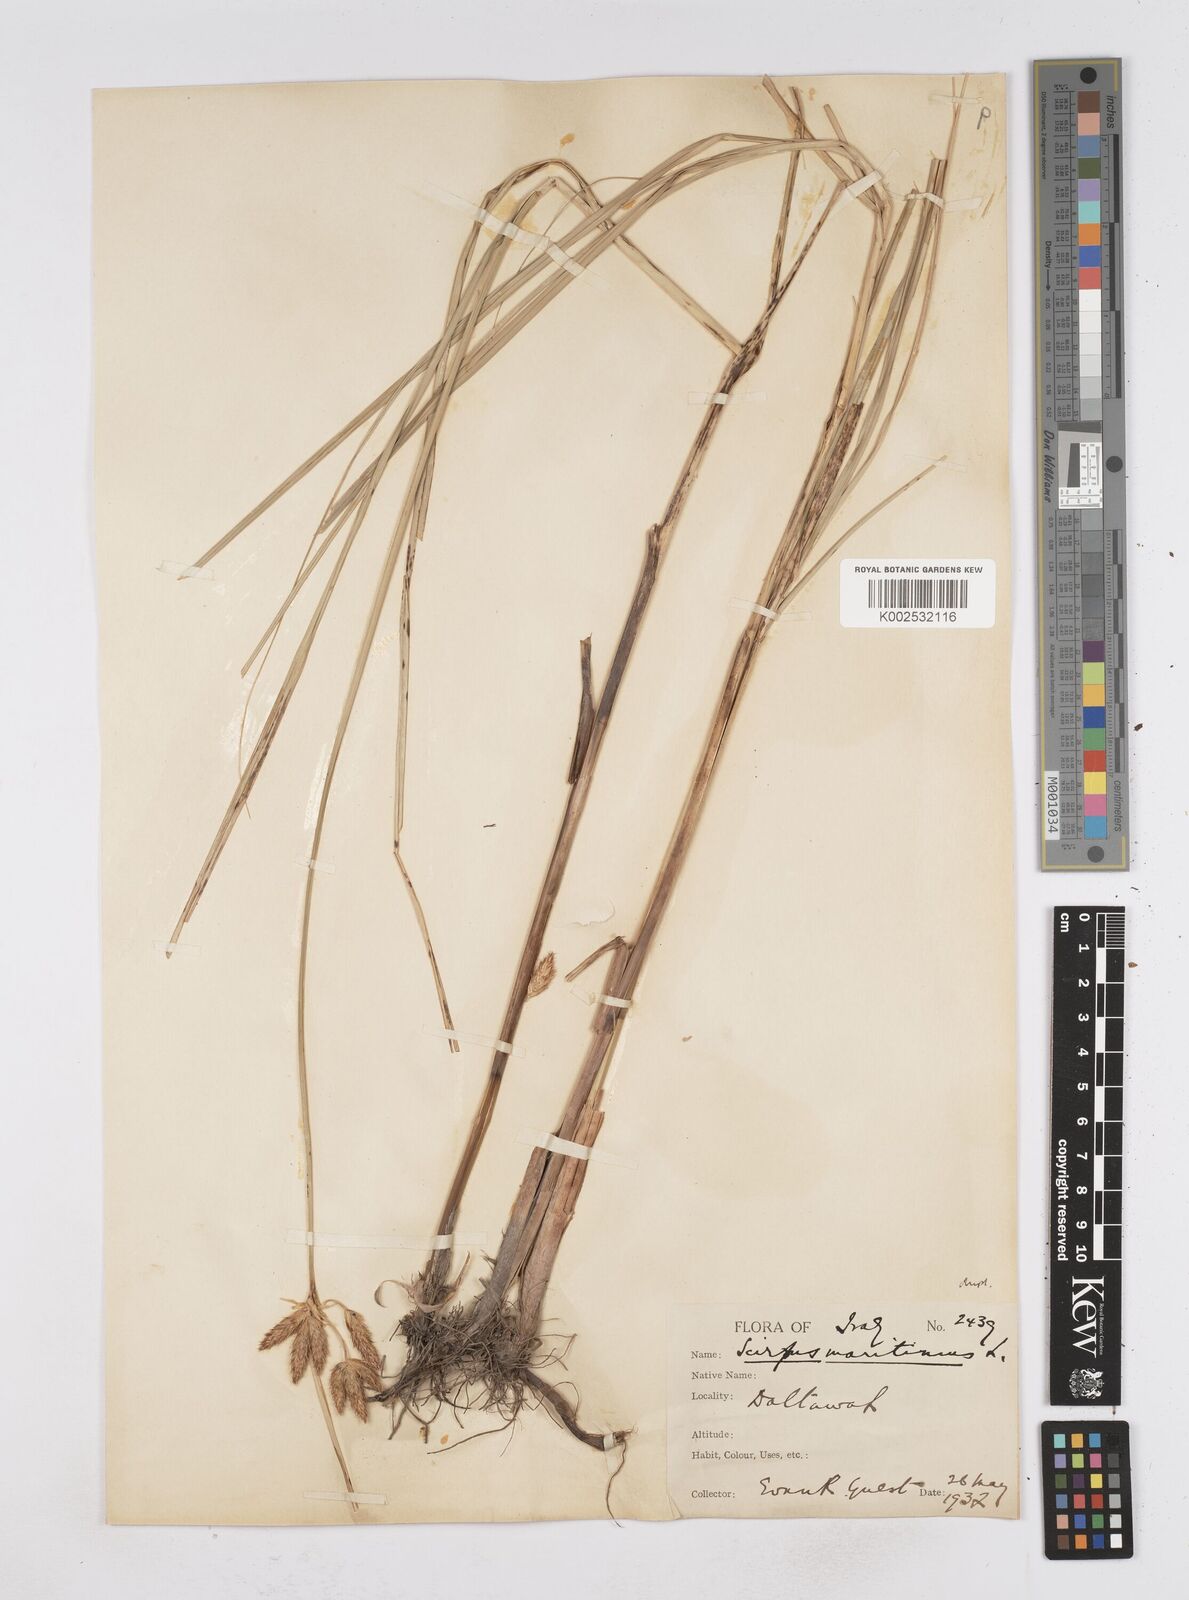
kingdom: Plantae
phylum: Tracheophyta
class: Liliopsida
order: Poales
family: Cyperaceae
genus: Bolboschoenus
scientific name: Bolboschoenus maritimus
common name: Sea club-rush
